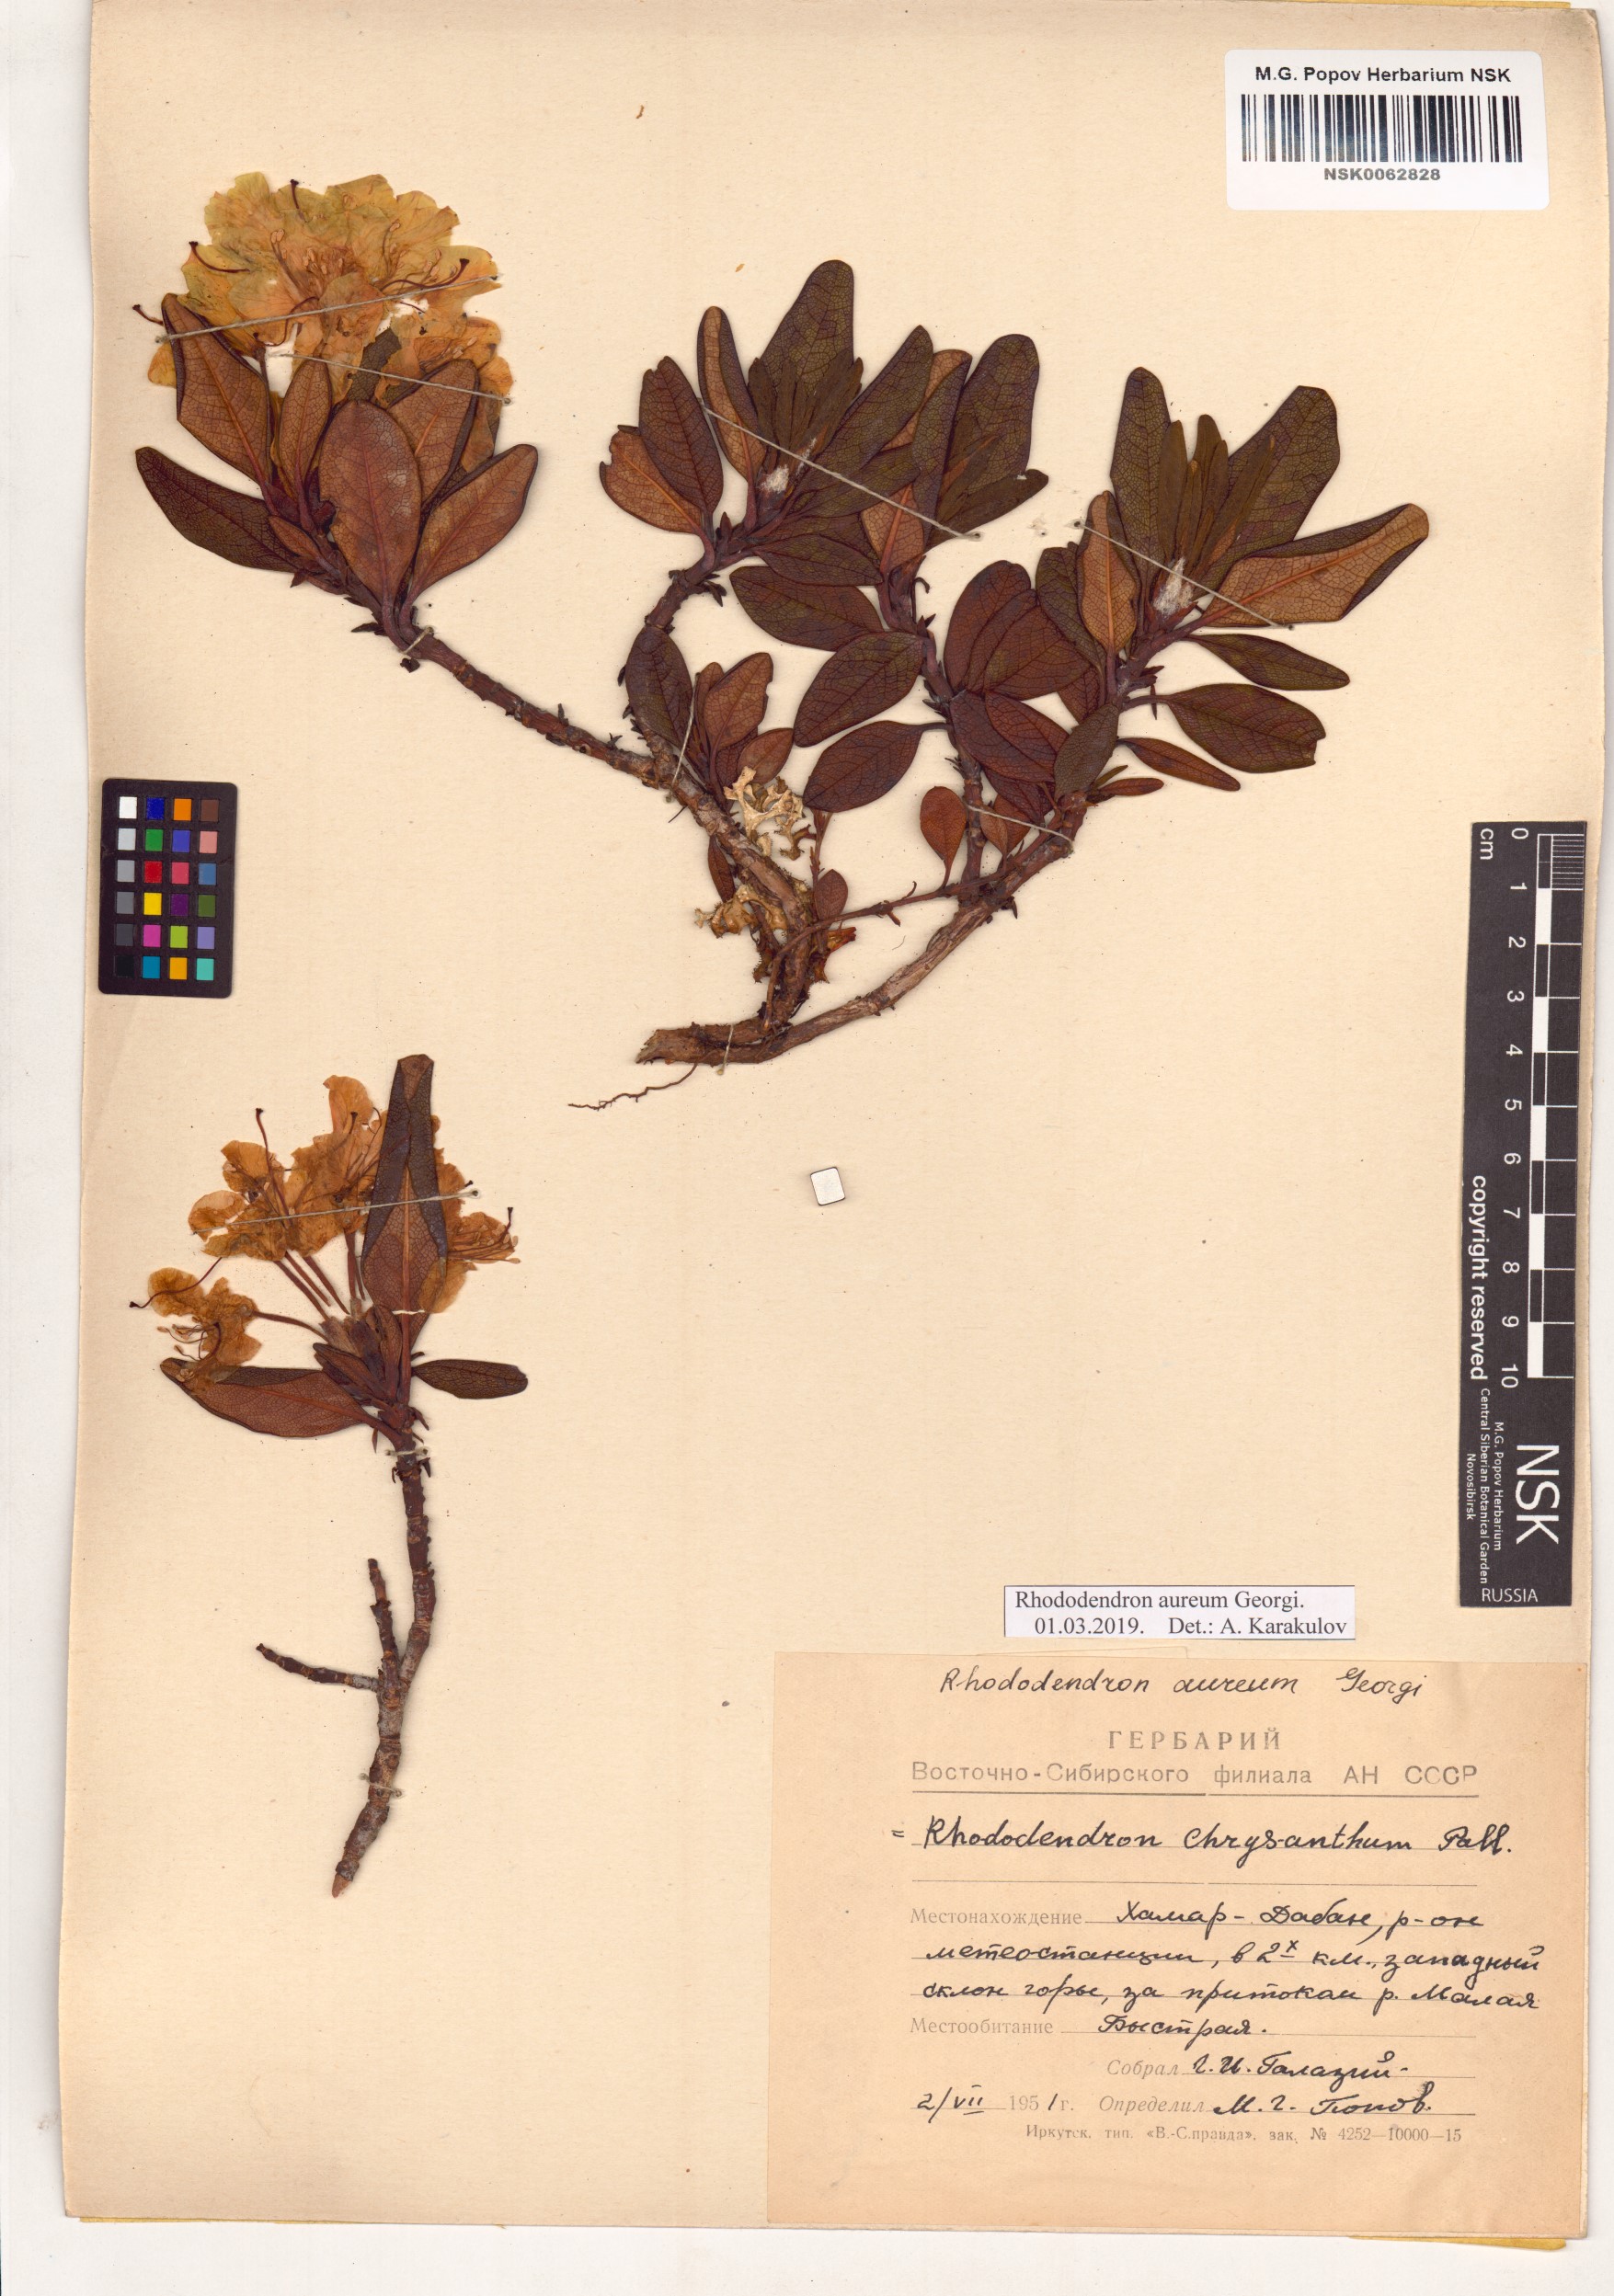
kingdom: Plantae
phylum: Tracheophyta
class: Magnoliopsida
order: Ericales
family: Ericaceae
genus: Rhododendron
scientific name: Rhododendron aureum
